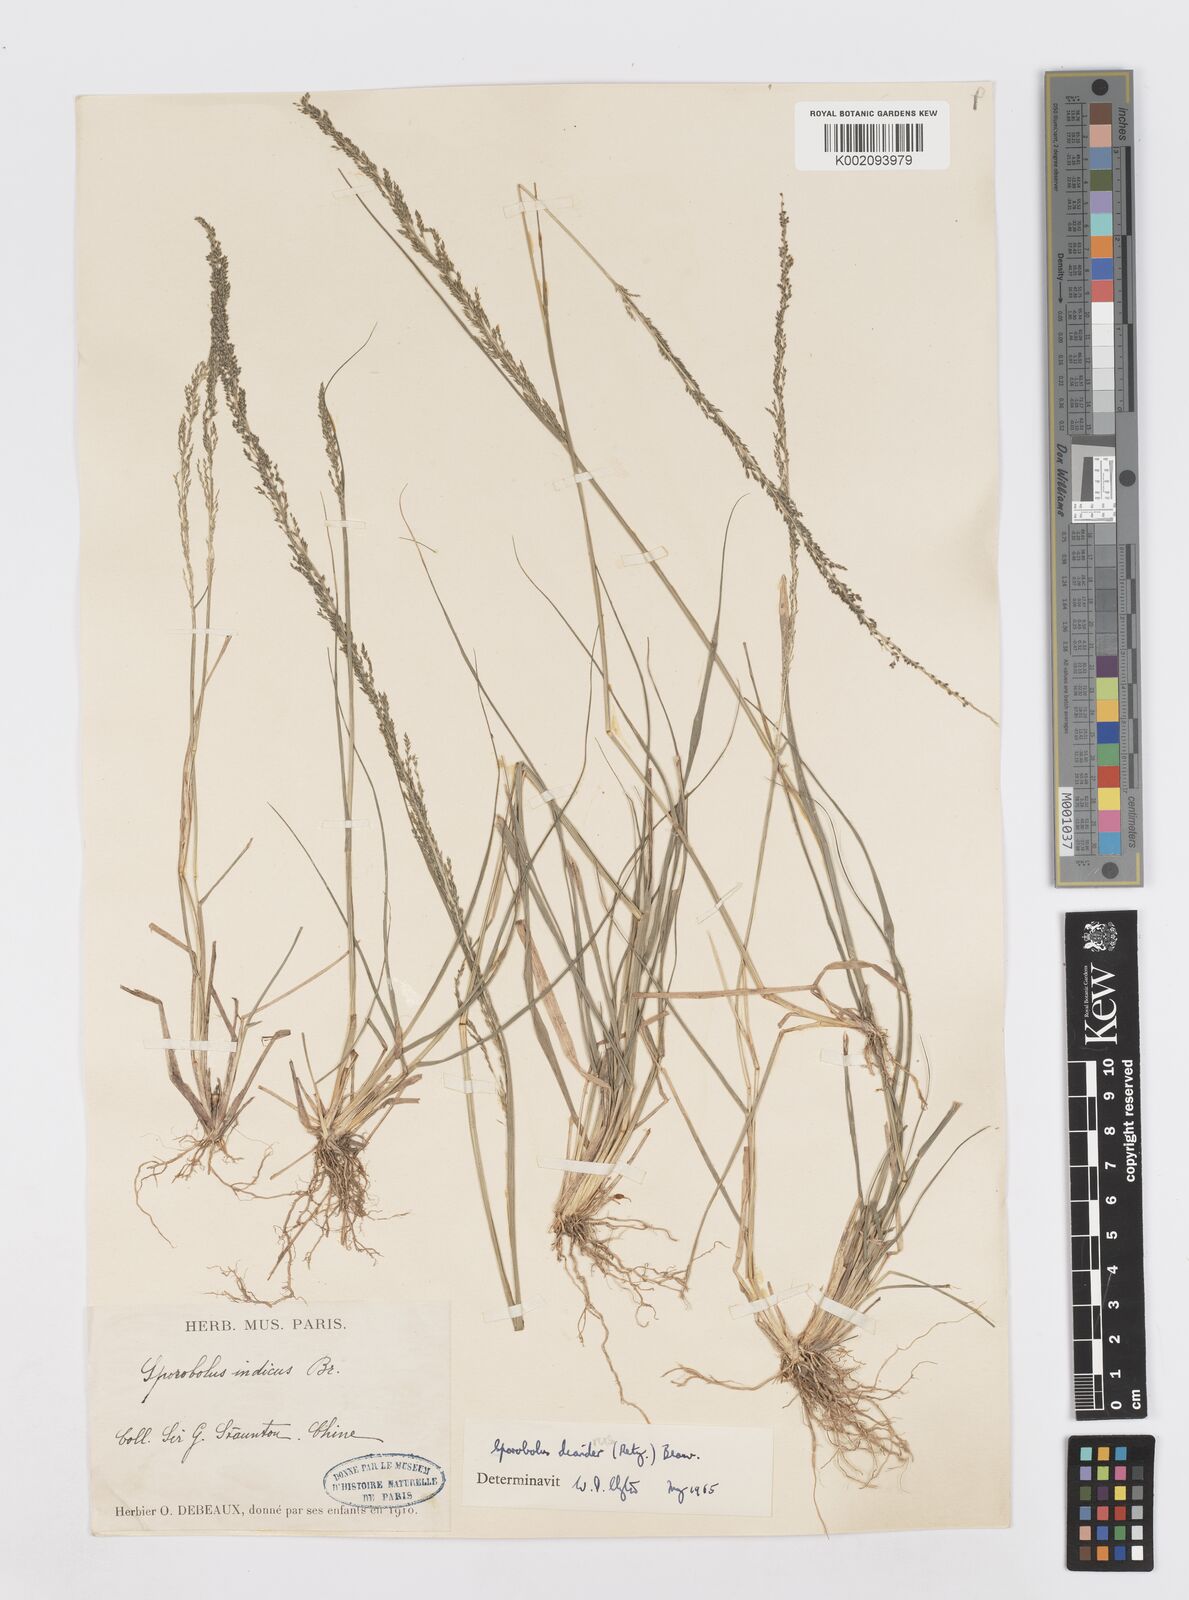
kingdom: Plantae
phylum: Tracheophyta
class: Liliopsida
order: Poales
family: Poaceae
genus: Sporobolus
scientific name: Sporobolus diandrus
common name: Tussock dropseed
